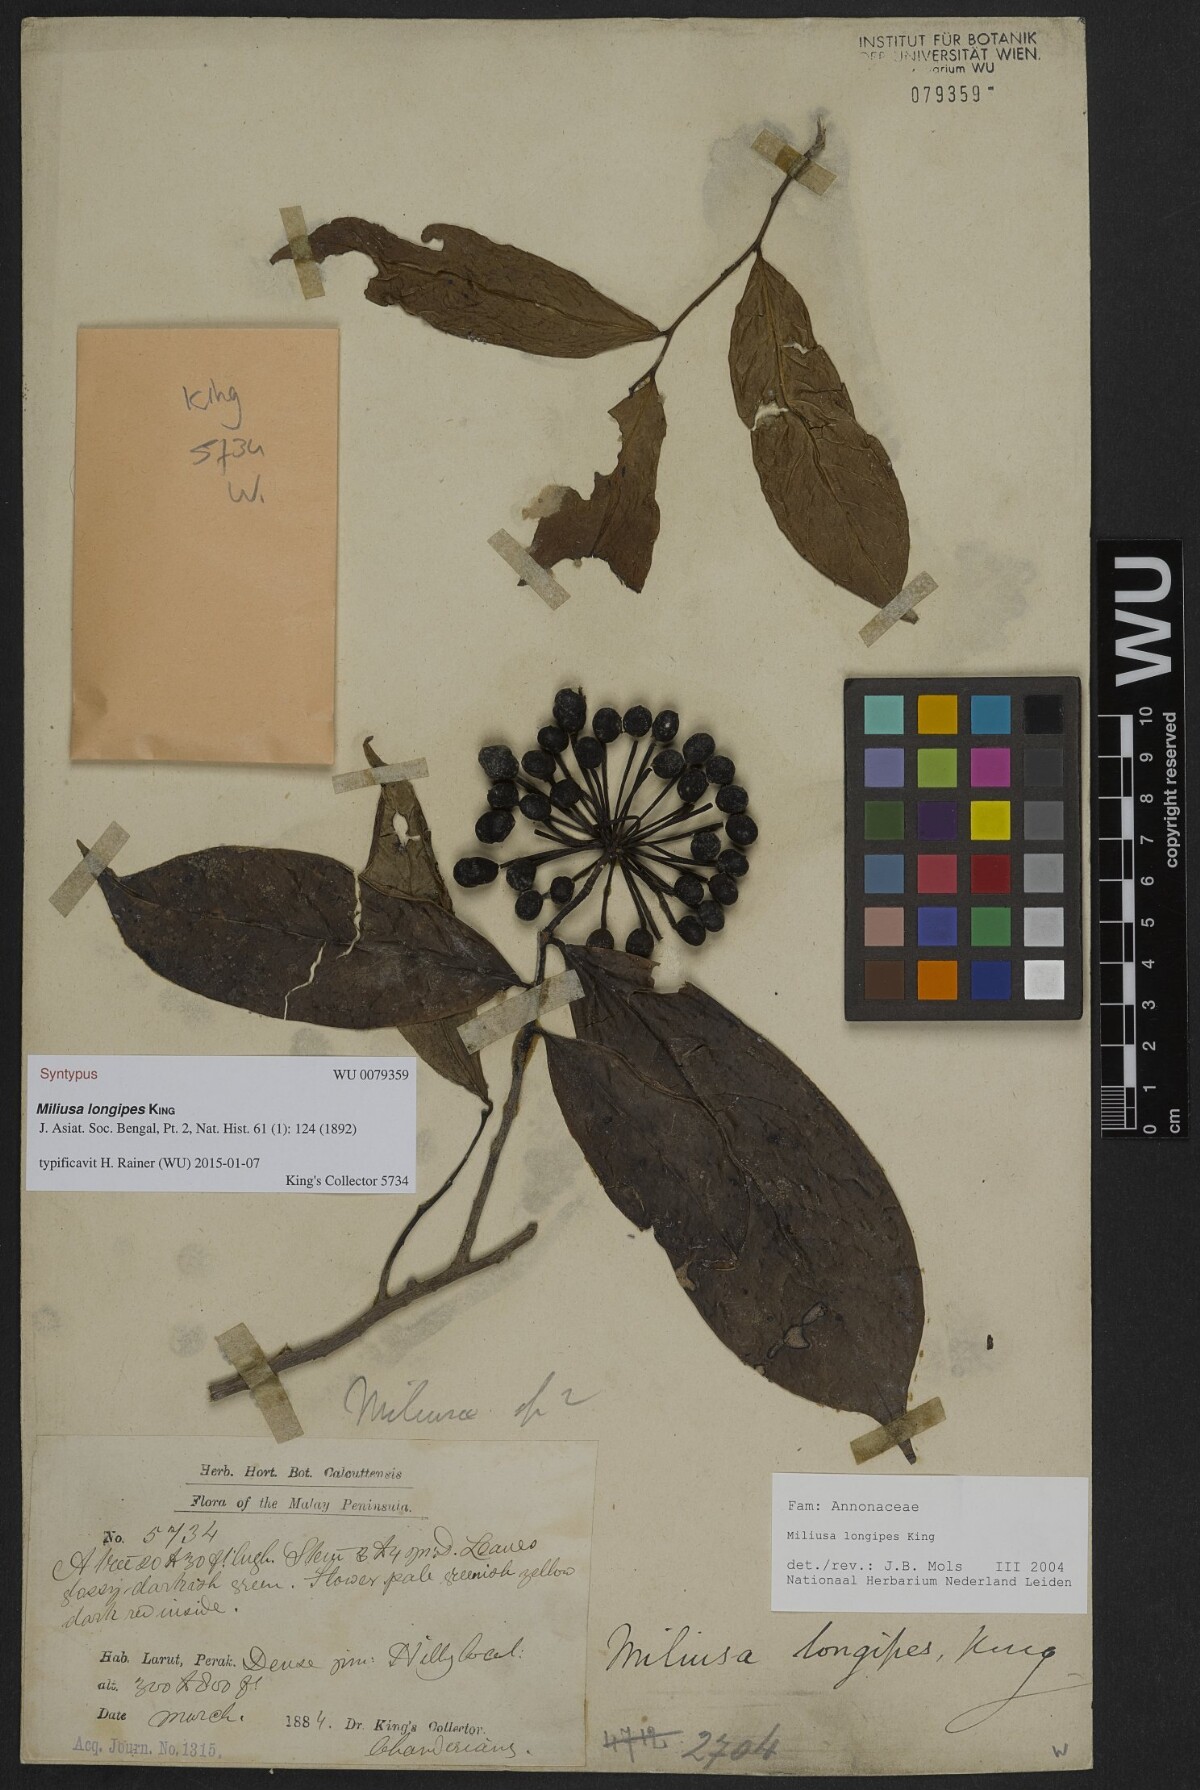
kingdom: Plantae
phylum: Tracheophyta
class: Magnoliopsida
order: Magnoliales
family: Annonaceae
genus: Miliusa
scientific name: Miliusa longipes
